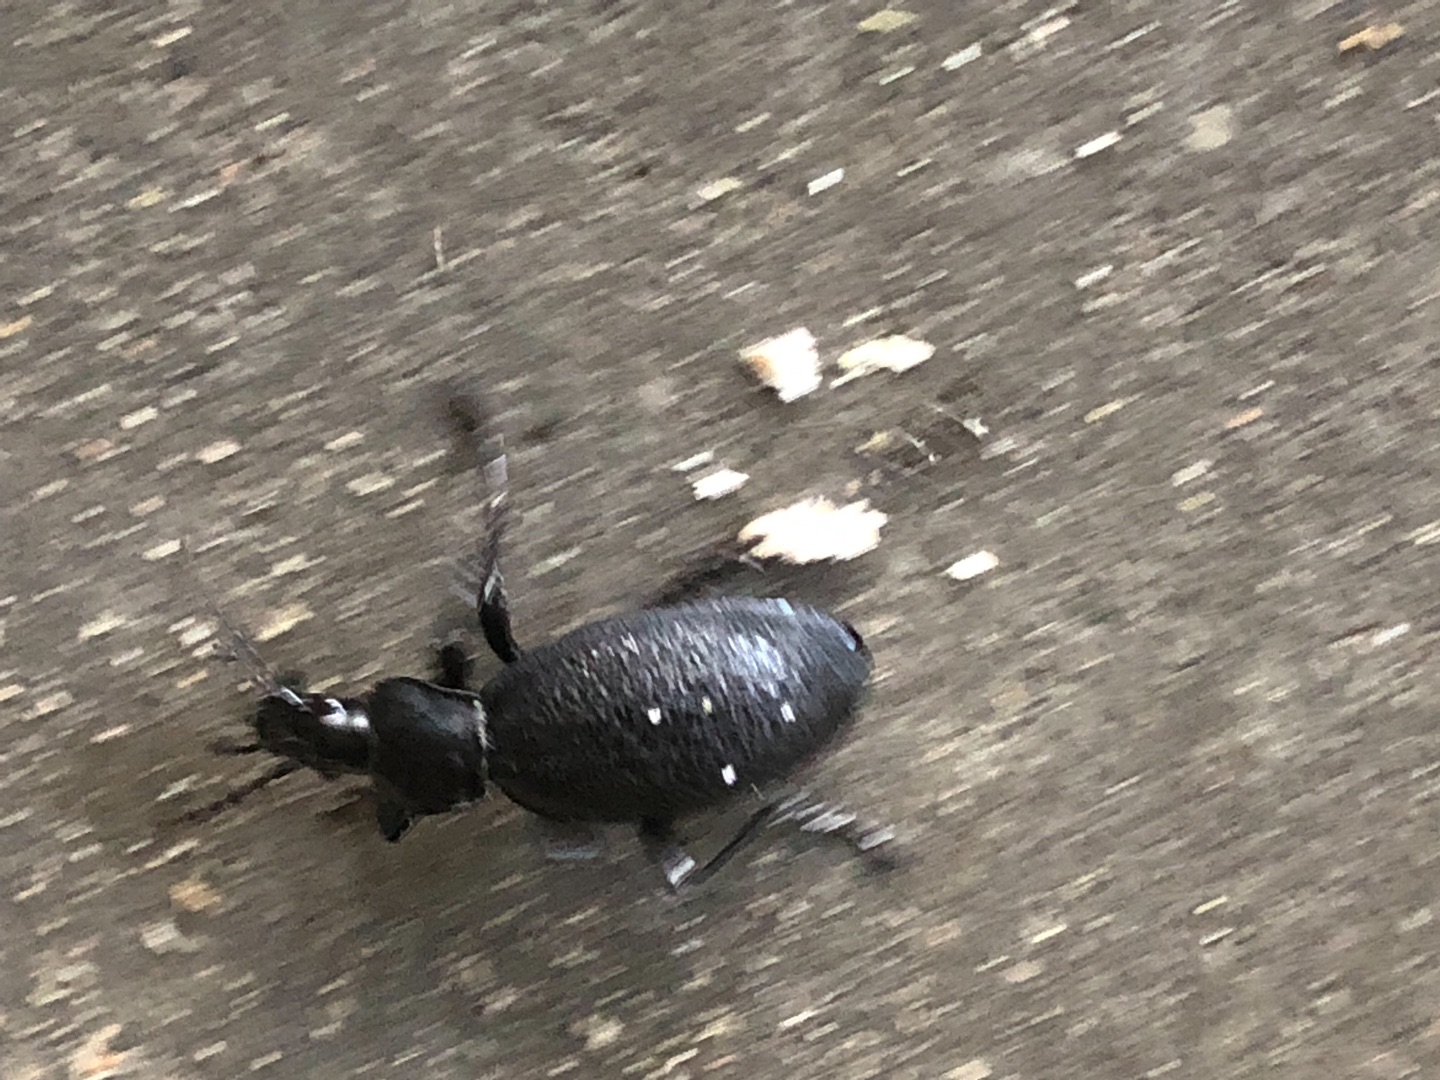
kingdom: Animalia
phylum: Arthropoda
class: Insecta
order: Coleoptera
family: Carabidae
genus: Carabus
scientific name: Carabus coriaceus
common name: Læderløber
